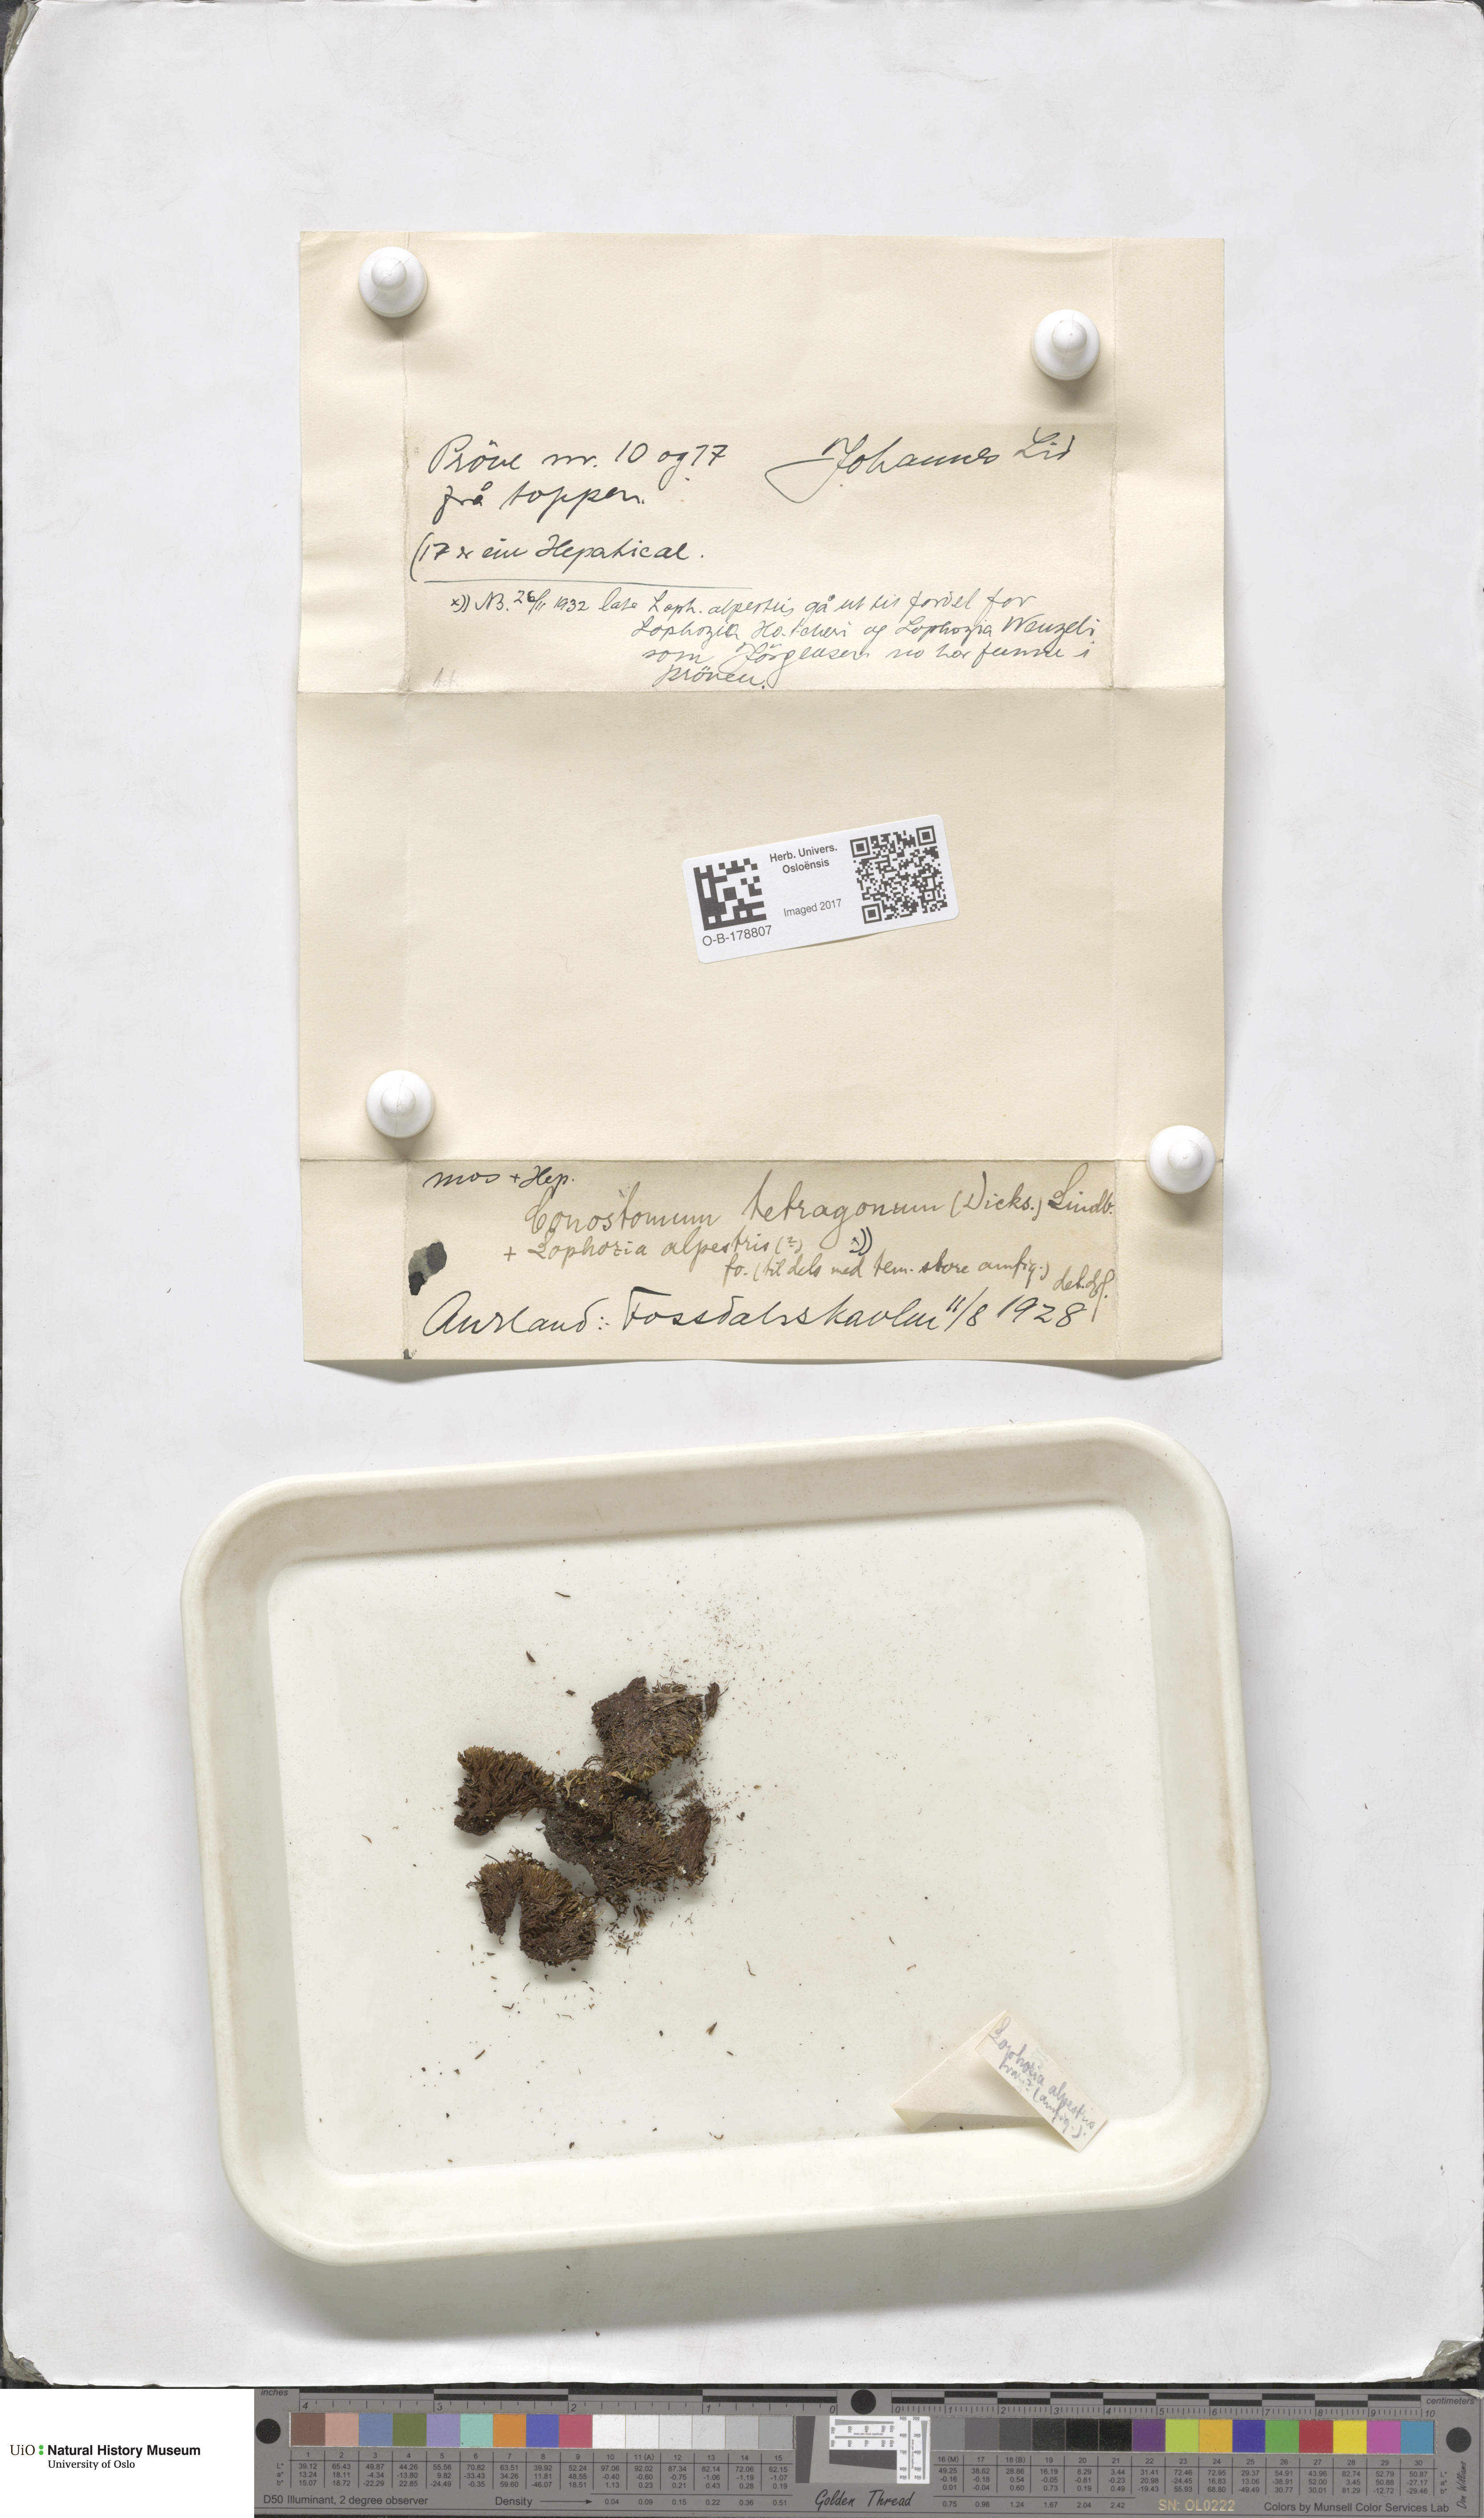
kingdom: Plantae
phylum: Bryophyta
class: Bryopsida
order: Bartramiales
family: Bartramiaceae
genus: Conostomum
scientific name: Conostomum tetragonum
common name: Helmet moss
